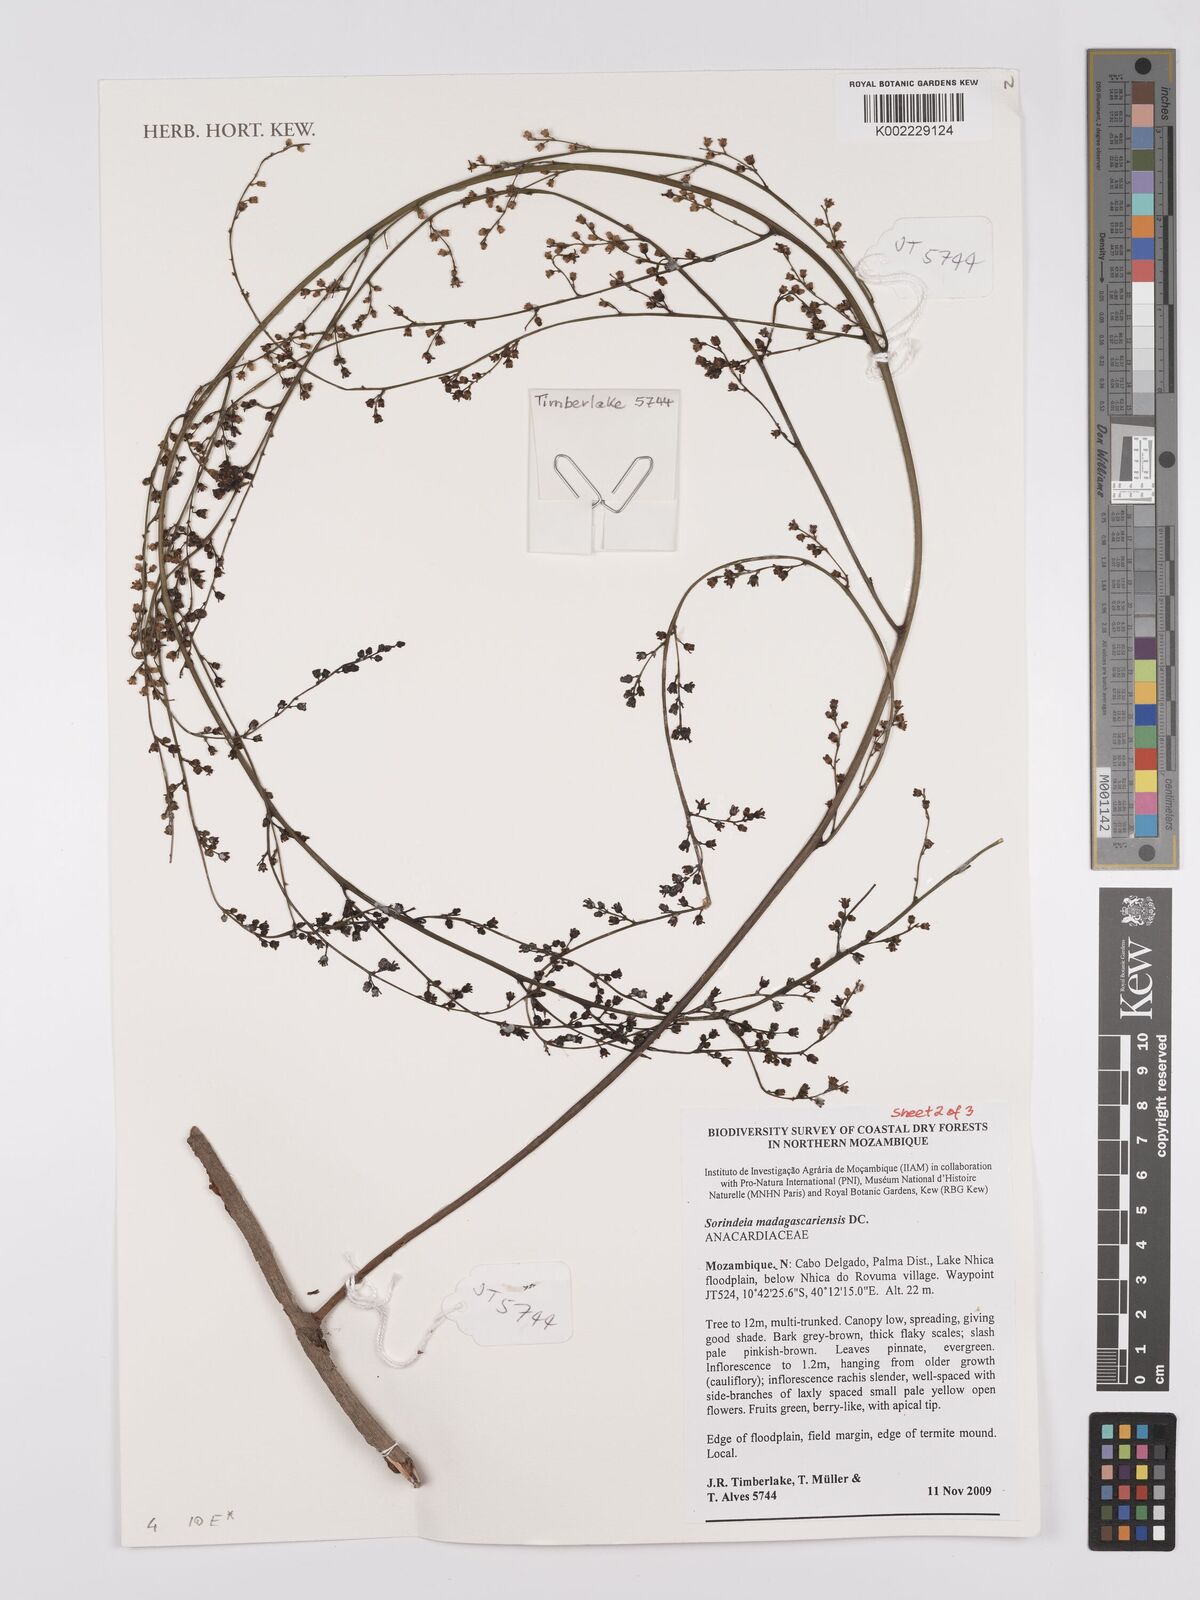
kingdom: Plantae
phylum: Tracheophyta
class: Magnoliopsida
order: Sapindales
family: Anacardiaceae
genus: Sorindeia
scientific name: Sorindeia madagascariensis
